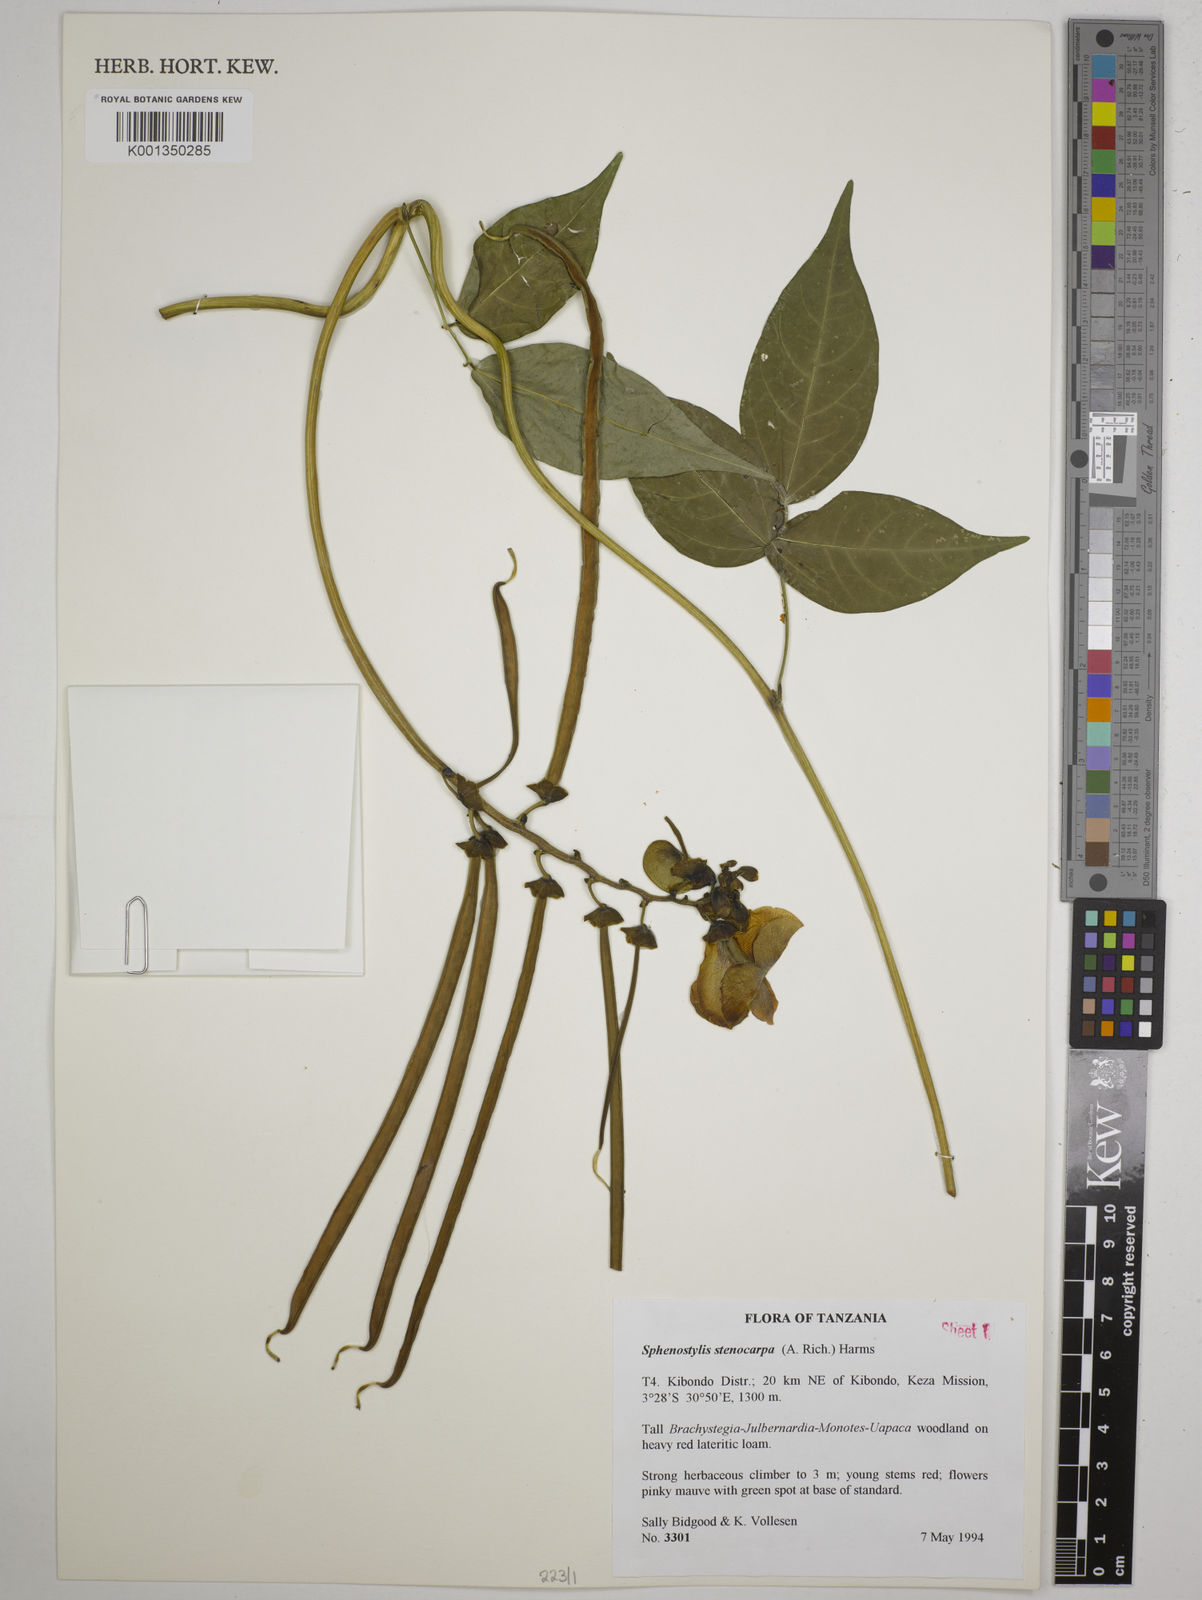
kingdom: Plantae
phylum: Tracheophyta
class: Magnoliopsida
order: Fabales
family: Fabaceae
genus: Sphenostylis
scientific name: Sphenostylis stenocarpa
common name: Yam-pea
